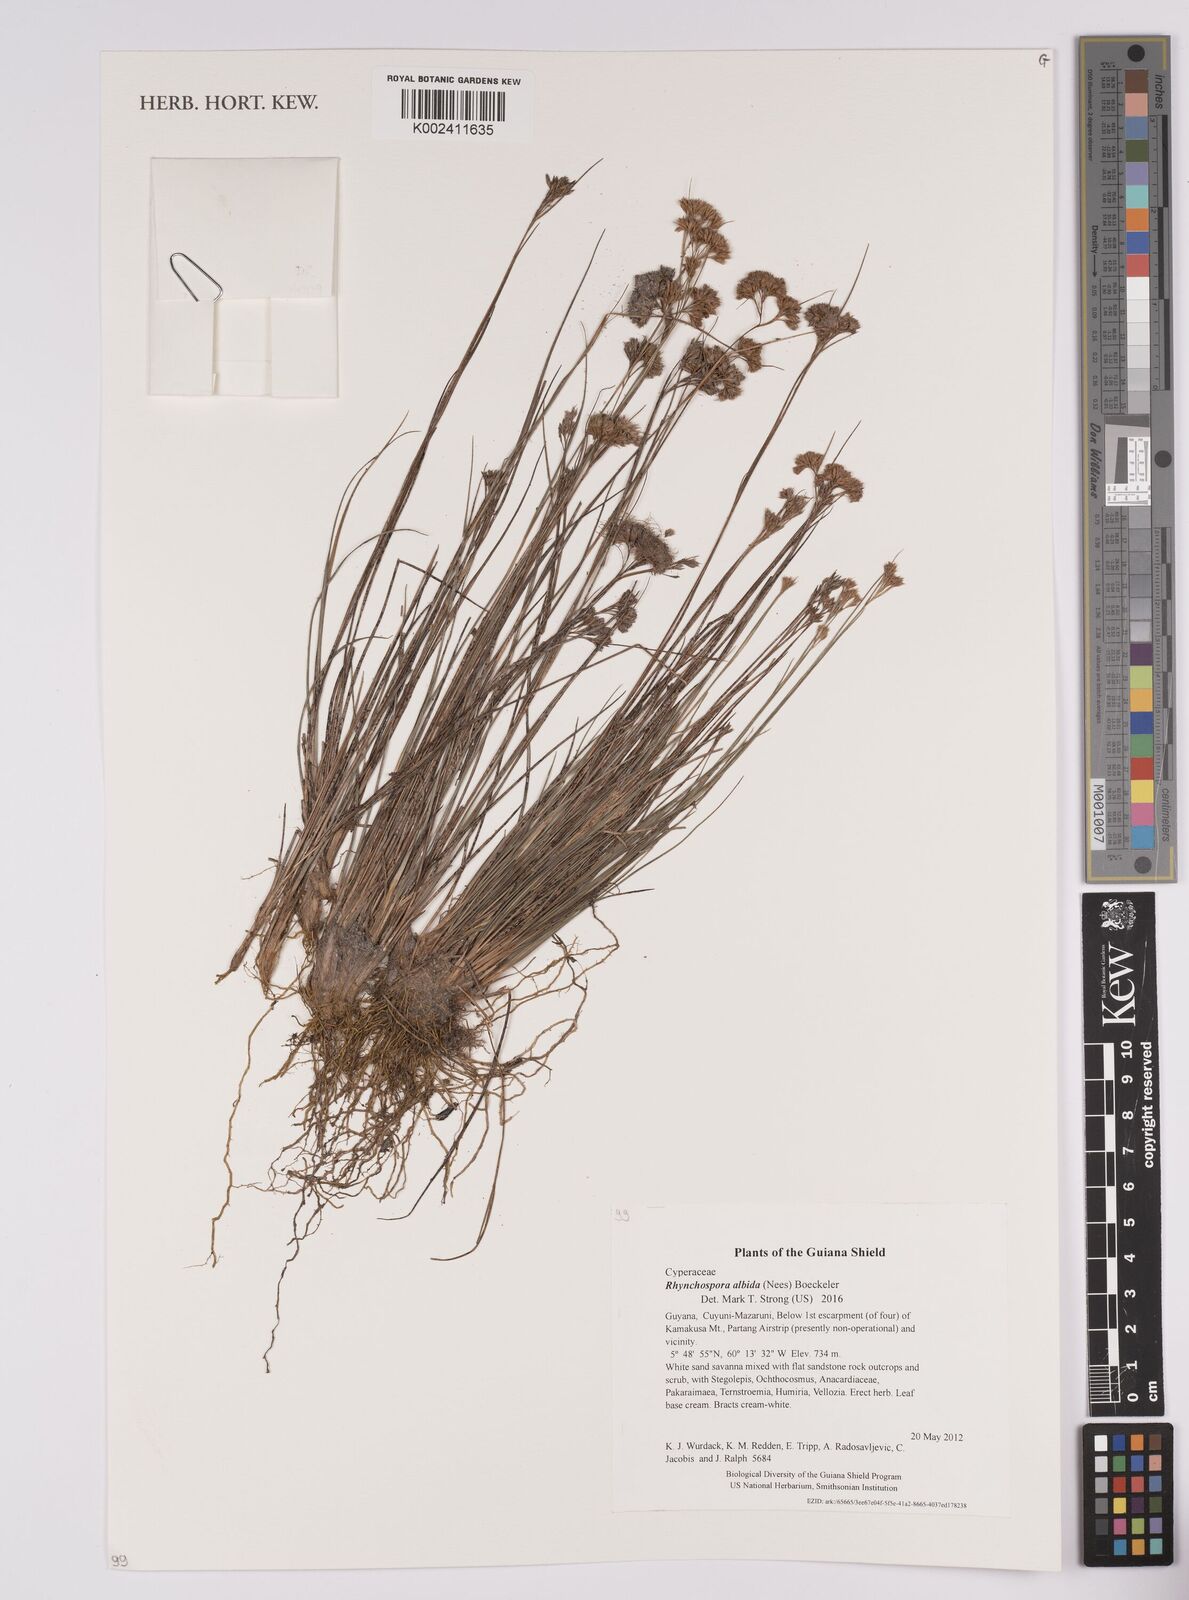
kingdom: Plantae
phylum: Tracheophyta
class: Liliopsida
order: Poales
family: Cyperaceae
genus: Rhynchospora
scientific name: Rhynchospora albida
